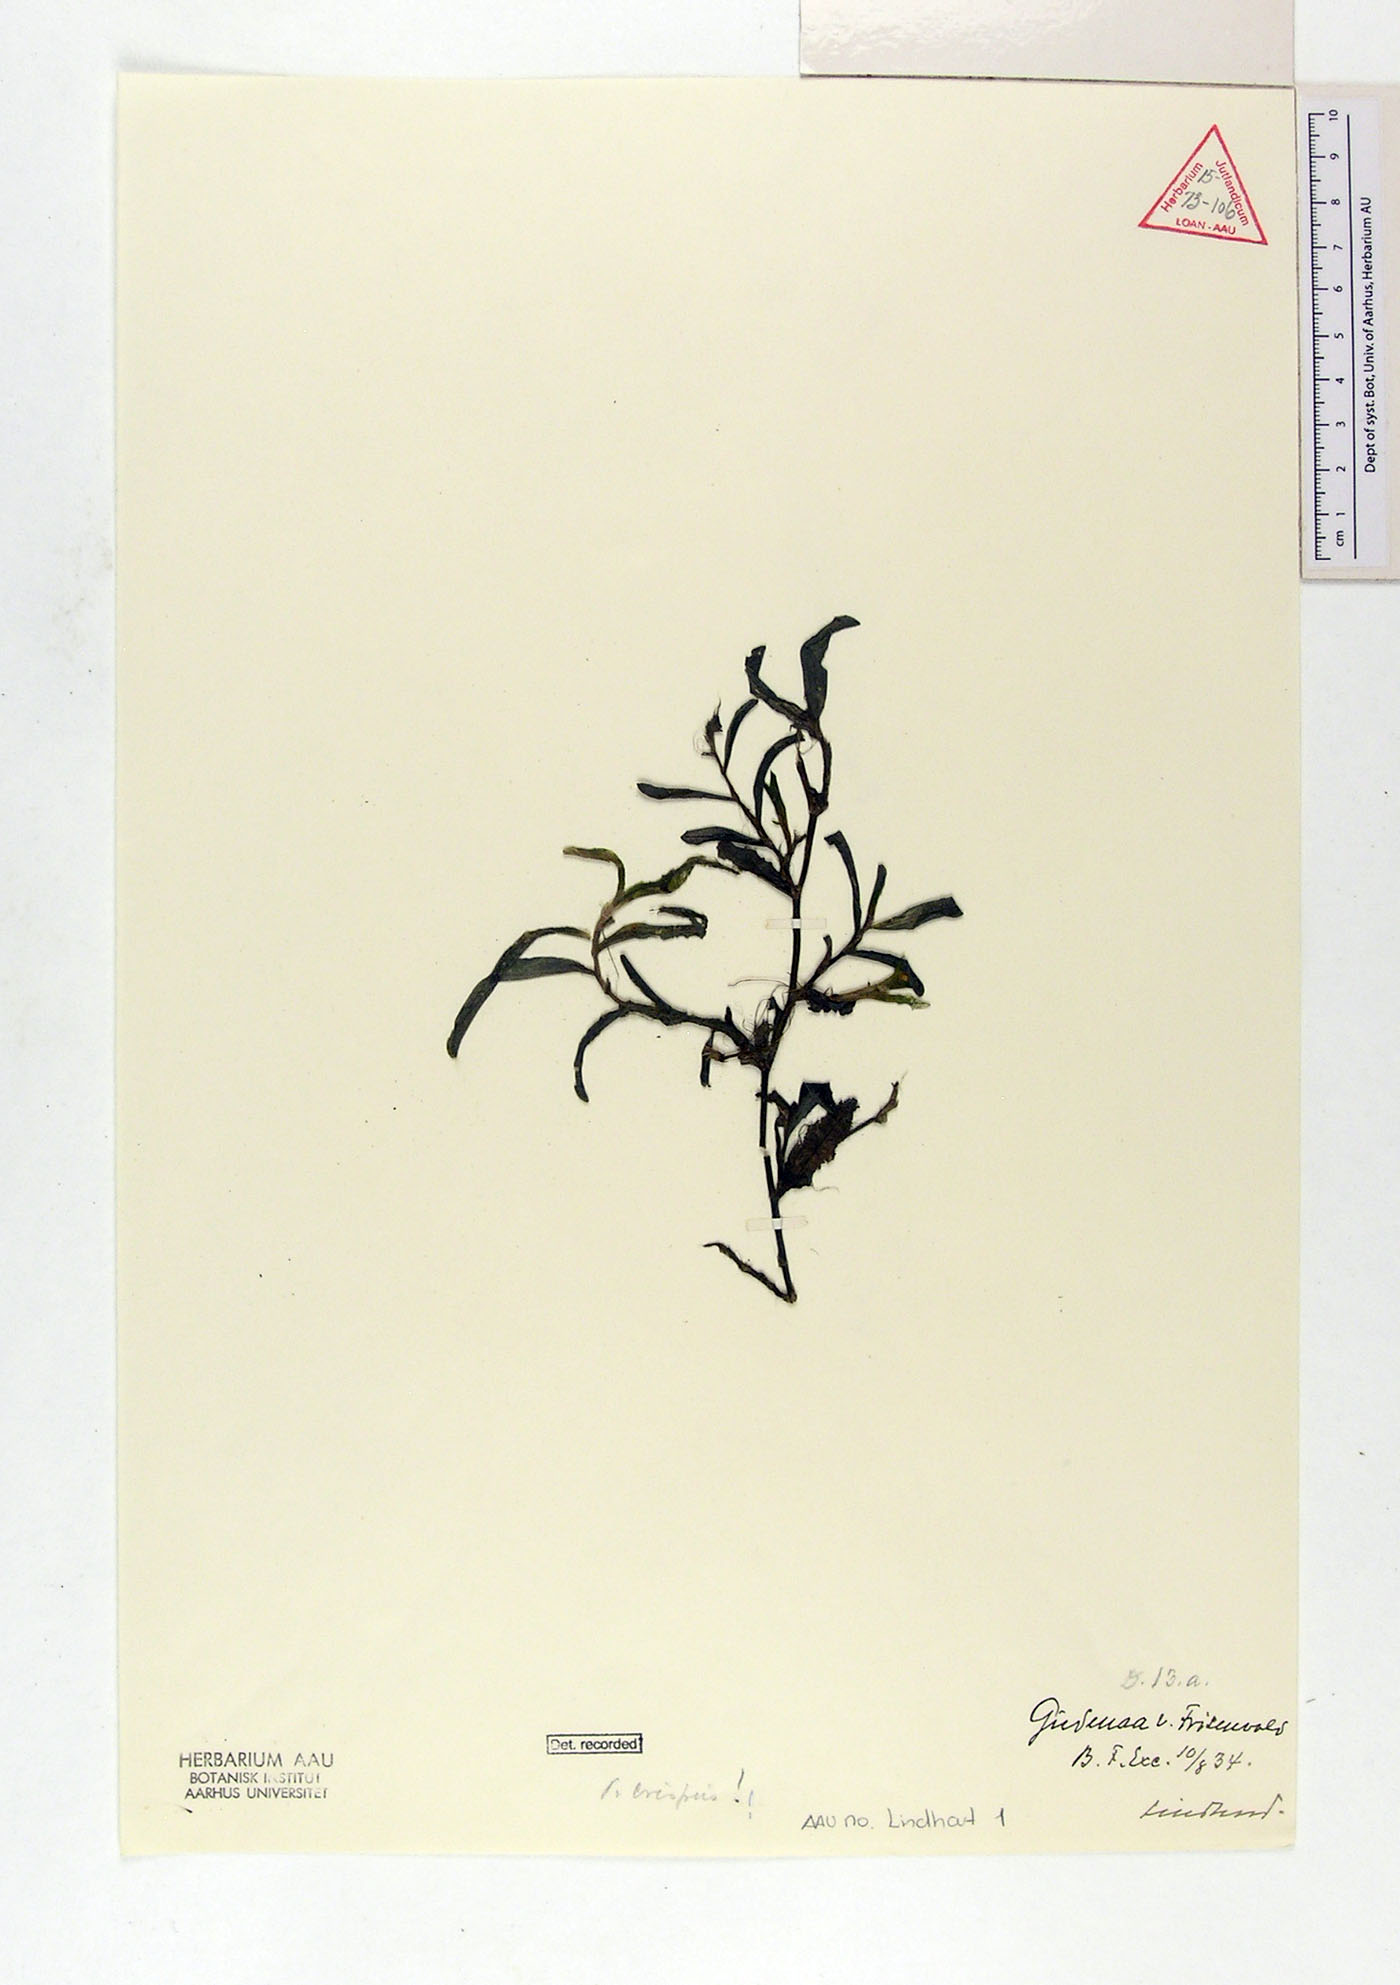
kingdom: Plantae
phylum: Tracheophyta
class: Liliopsida
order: Alismatales
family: Potamogetonaceae
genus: Potamogeton
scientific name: Potamogeton crispus
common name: Curled pondweed
